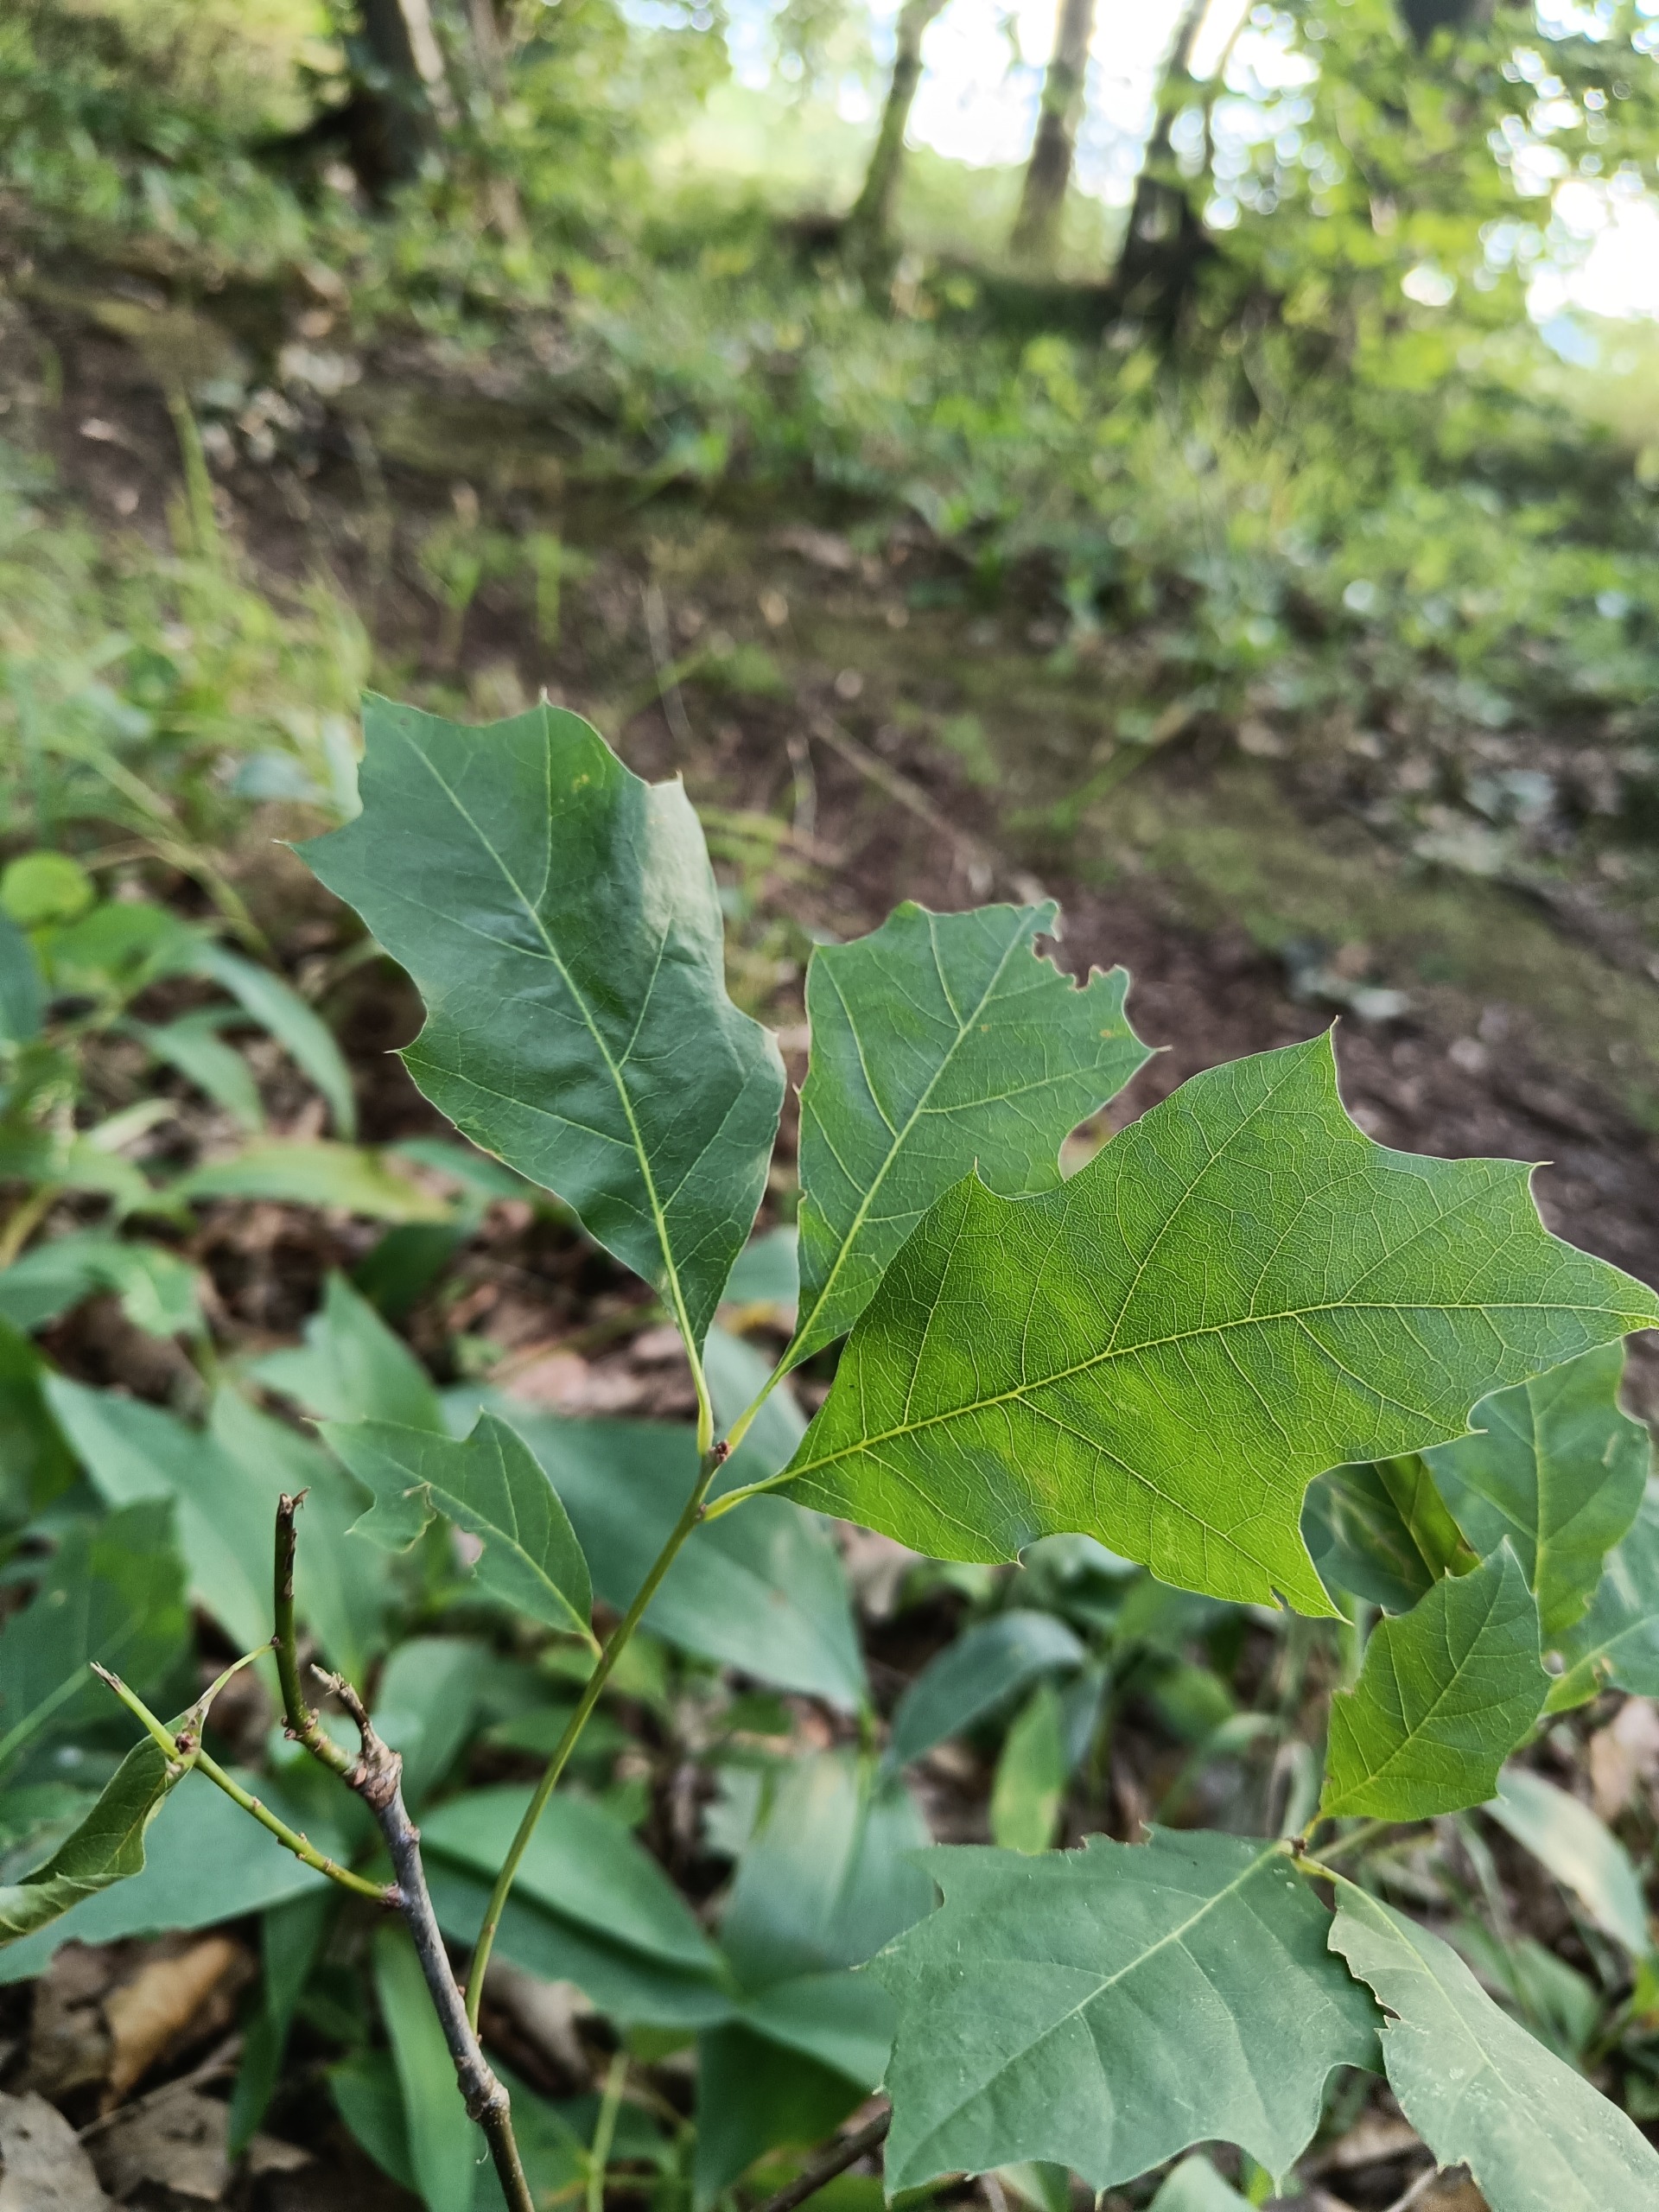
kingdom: Plantae
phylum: Tracheophyta
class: Magnoliopsida
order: Fagales
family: Fagaceae
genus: Quercus
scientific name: Quercus rubra
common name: Rød-eg
